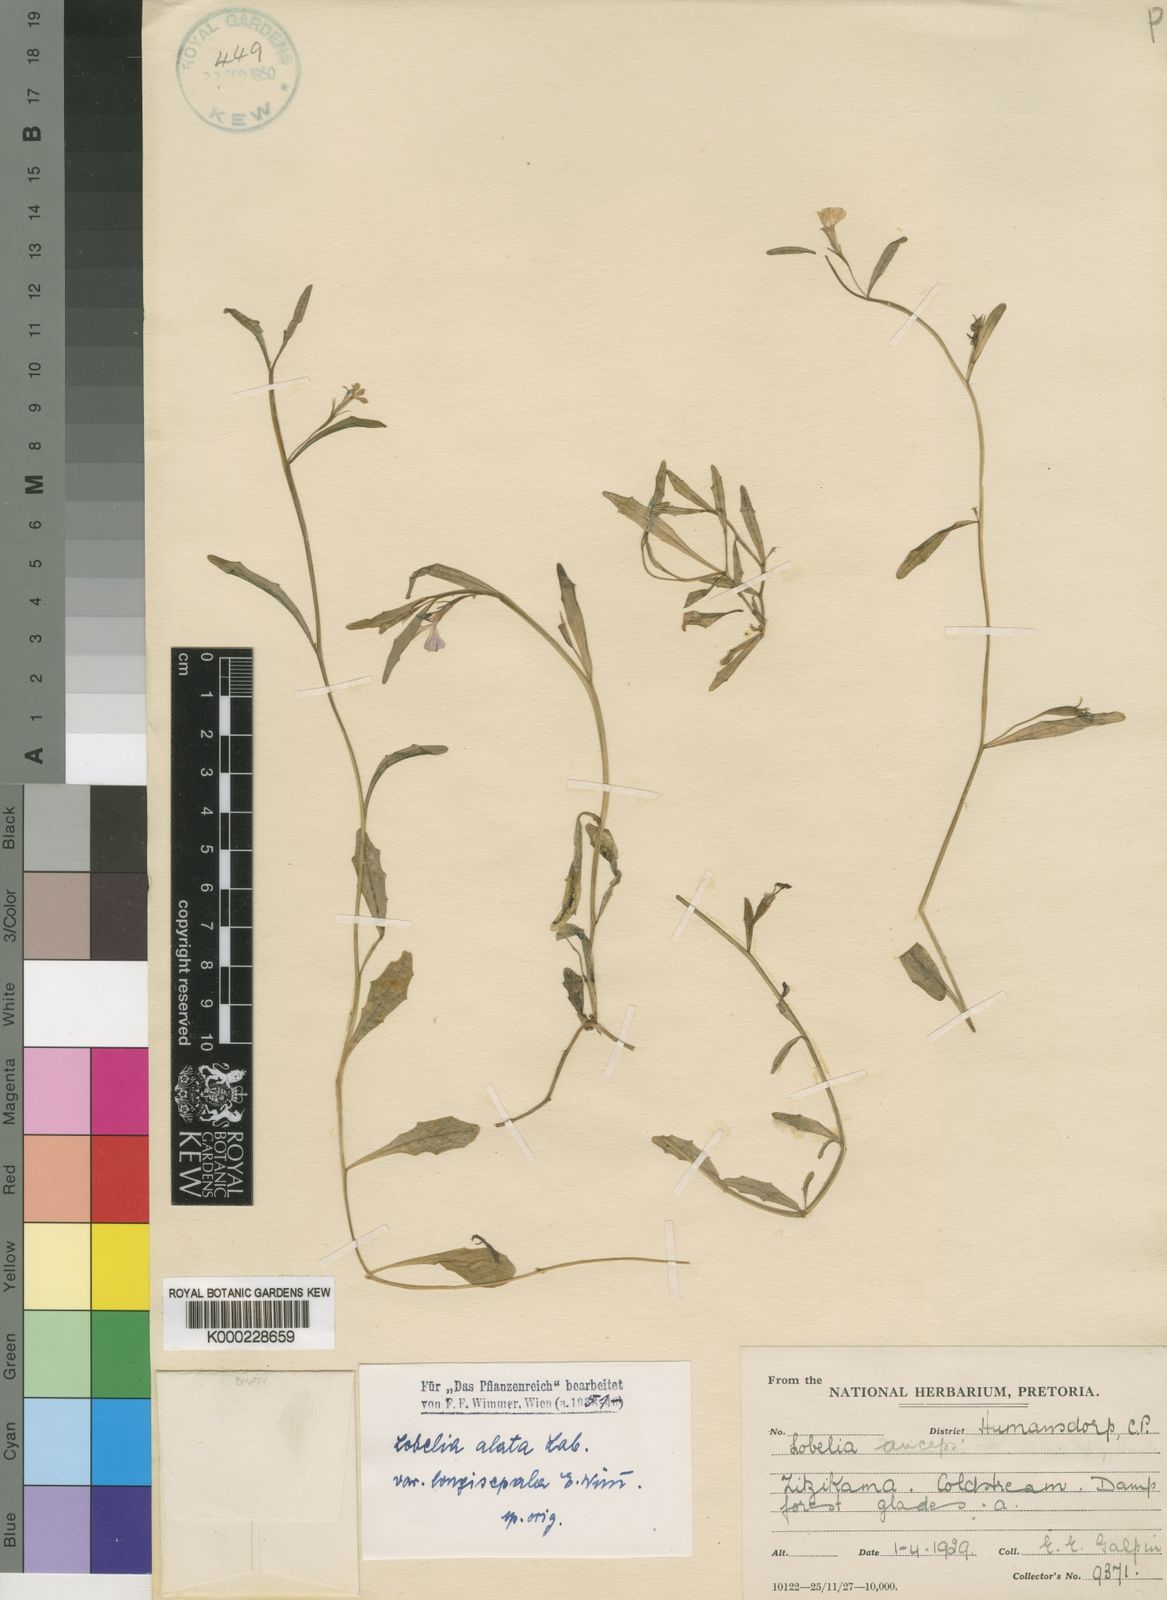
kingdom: Plantae
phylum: Tracheophyta
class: Magnoliopsida
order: Asterales
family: Campanulaceae
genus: Lobelia
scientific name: Lobelia anceps
